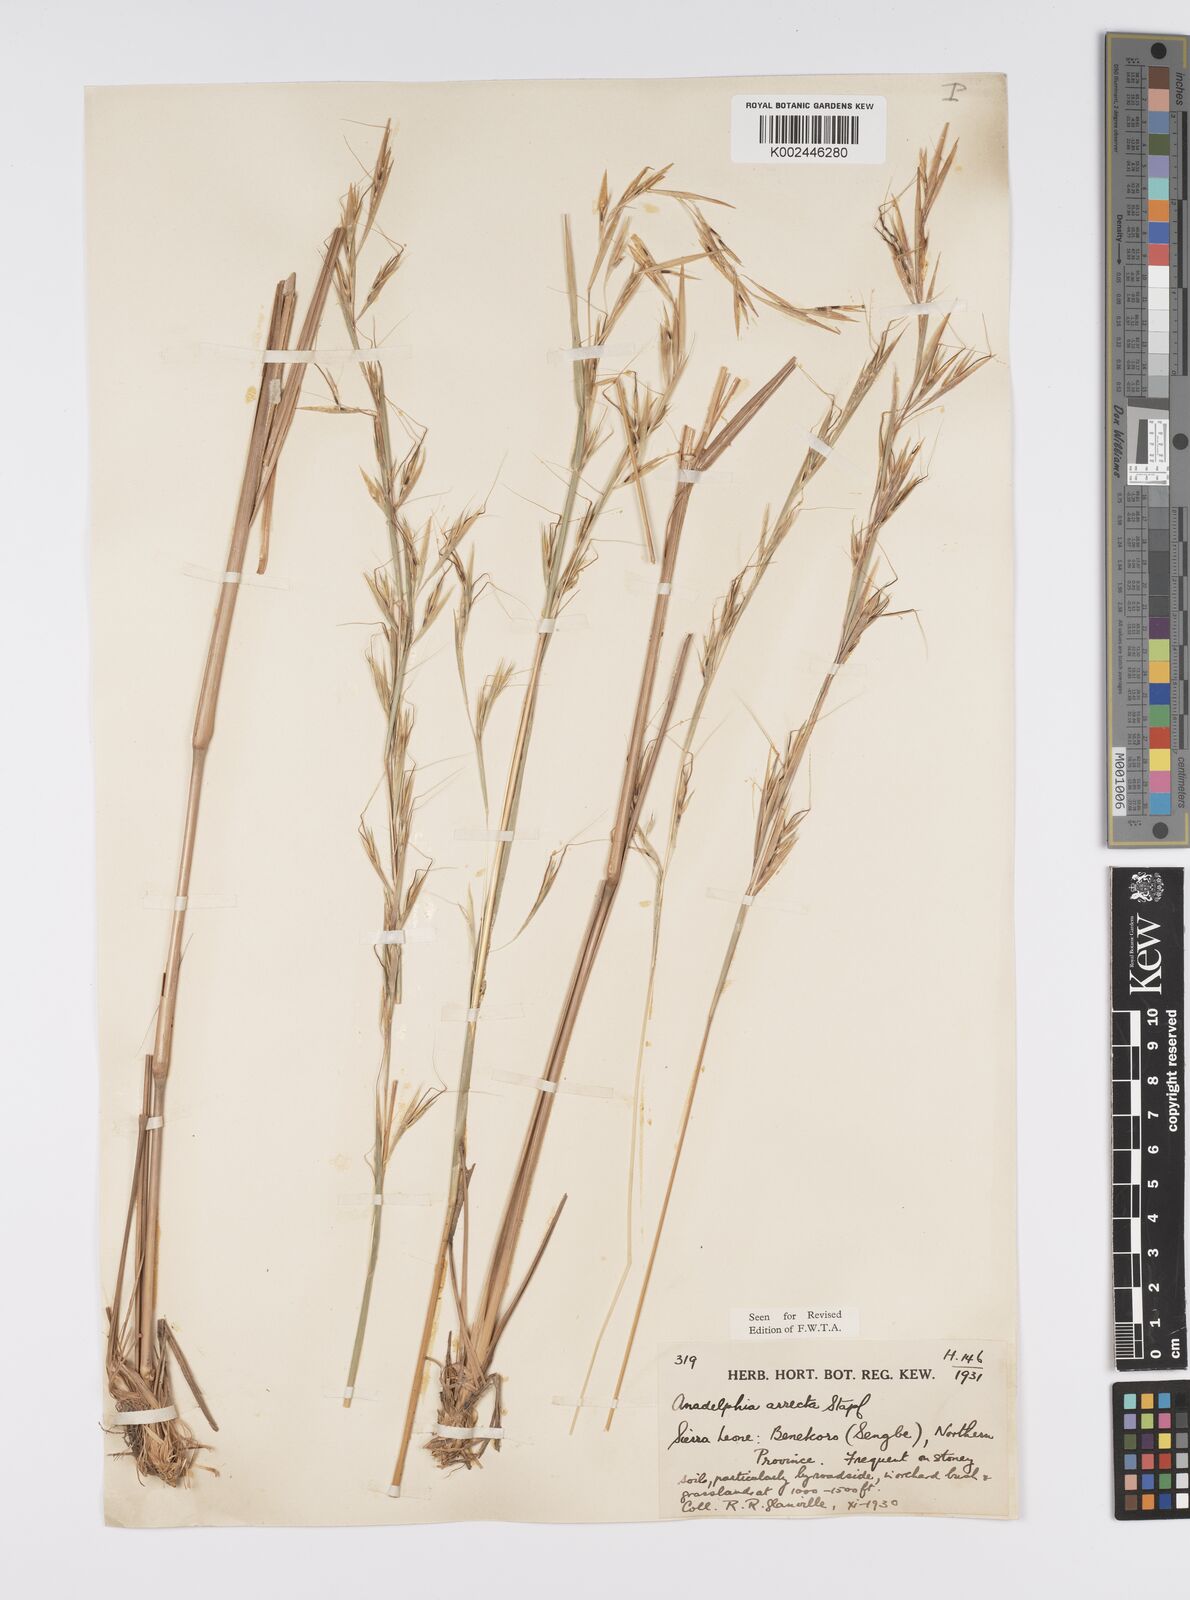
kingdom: Plantae
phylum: Tracheophyta
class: Liliopsida
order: Poales
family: Poaceae
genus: Anadelphia
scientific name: Anadelphia afzeliana
